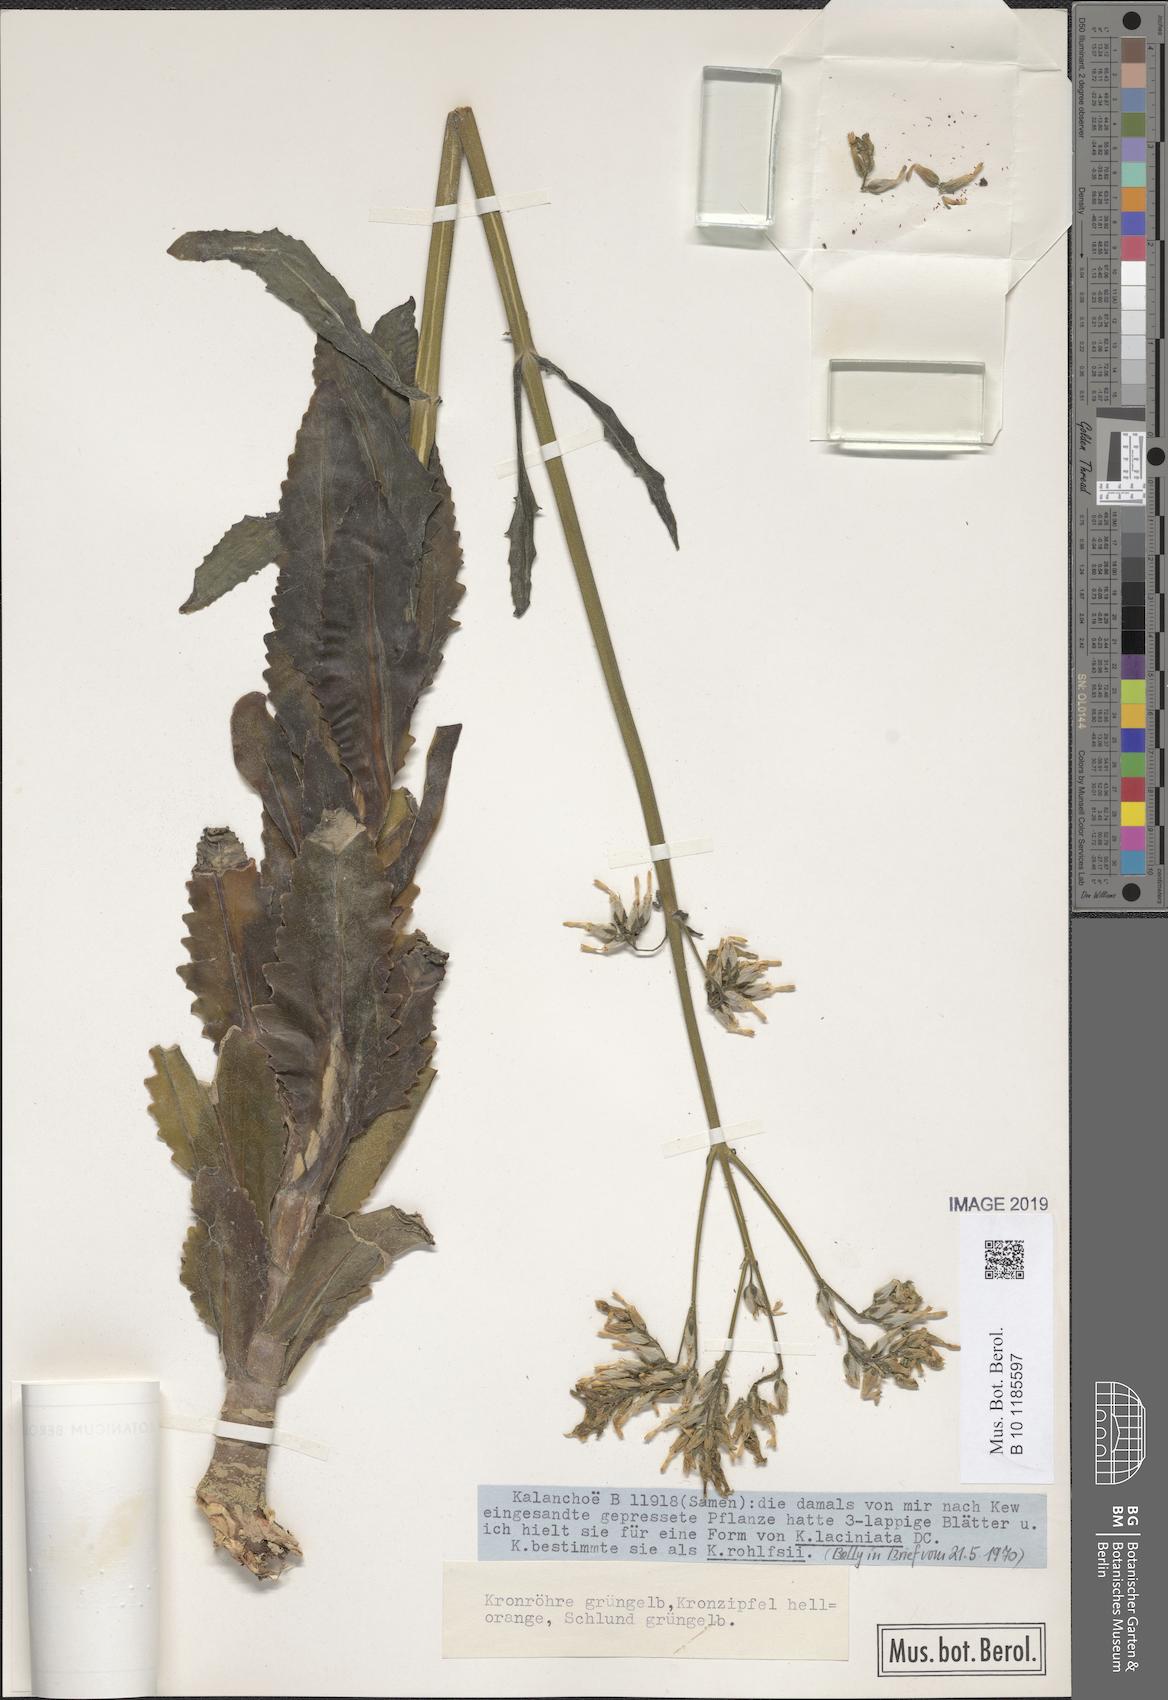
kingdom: Plantae
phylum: Tracheophyta
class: Magnoliopsida
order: Saxifragales
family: Crassulaceae
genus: Kalanchoe
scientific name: Kalanchoe lanceolata
